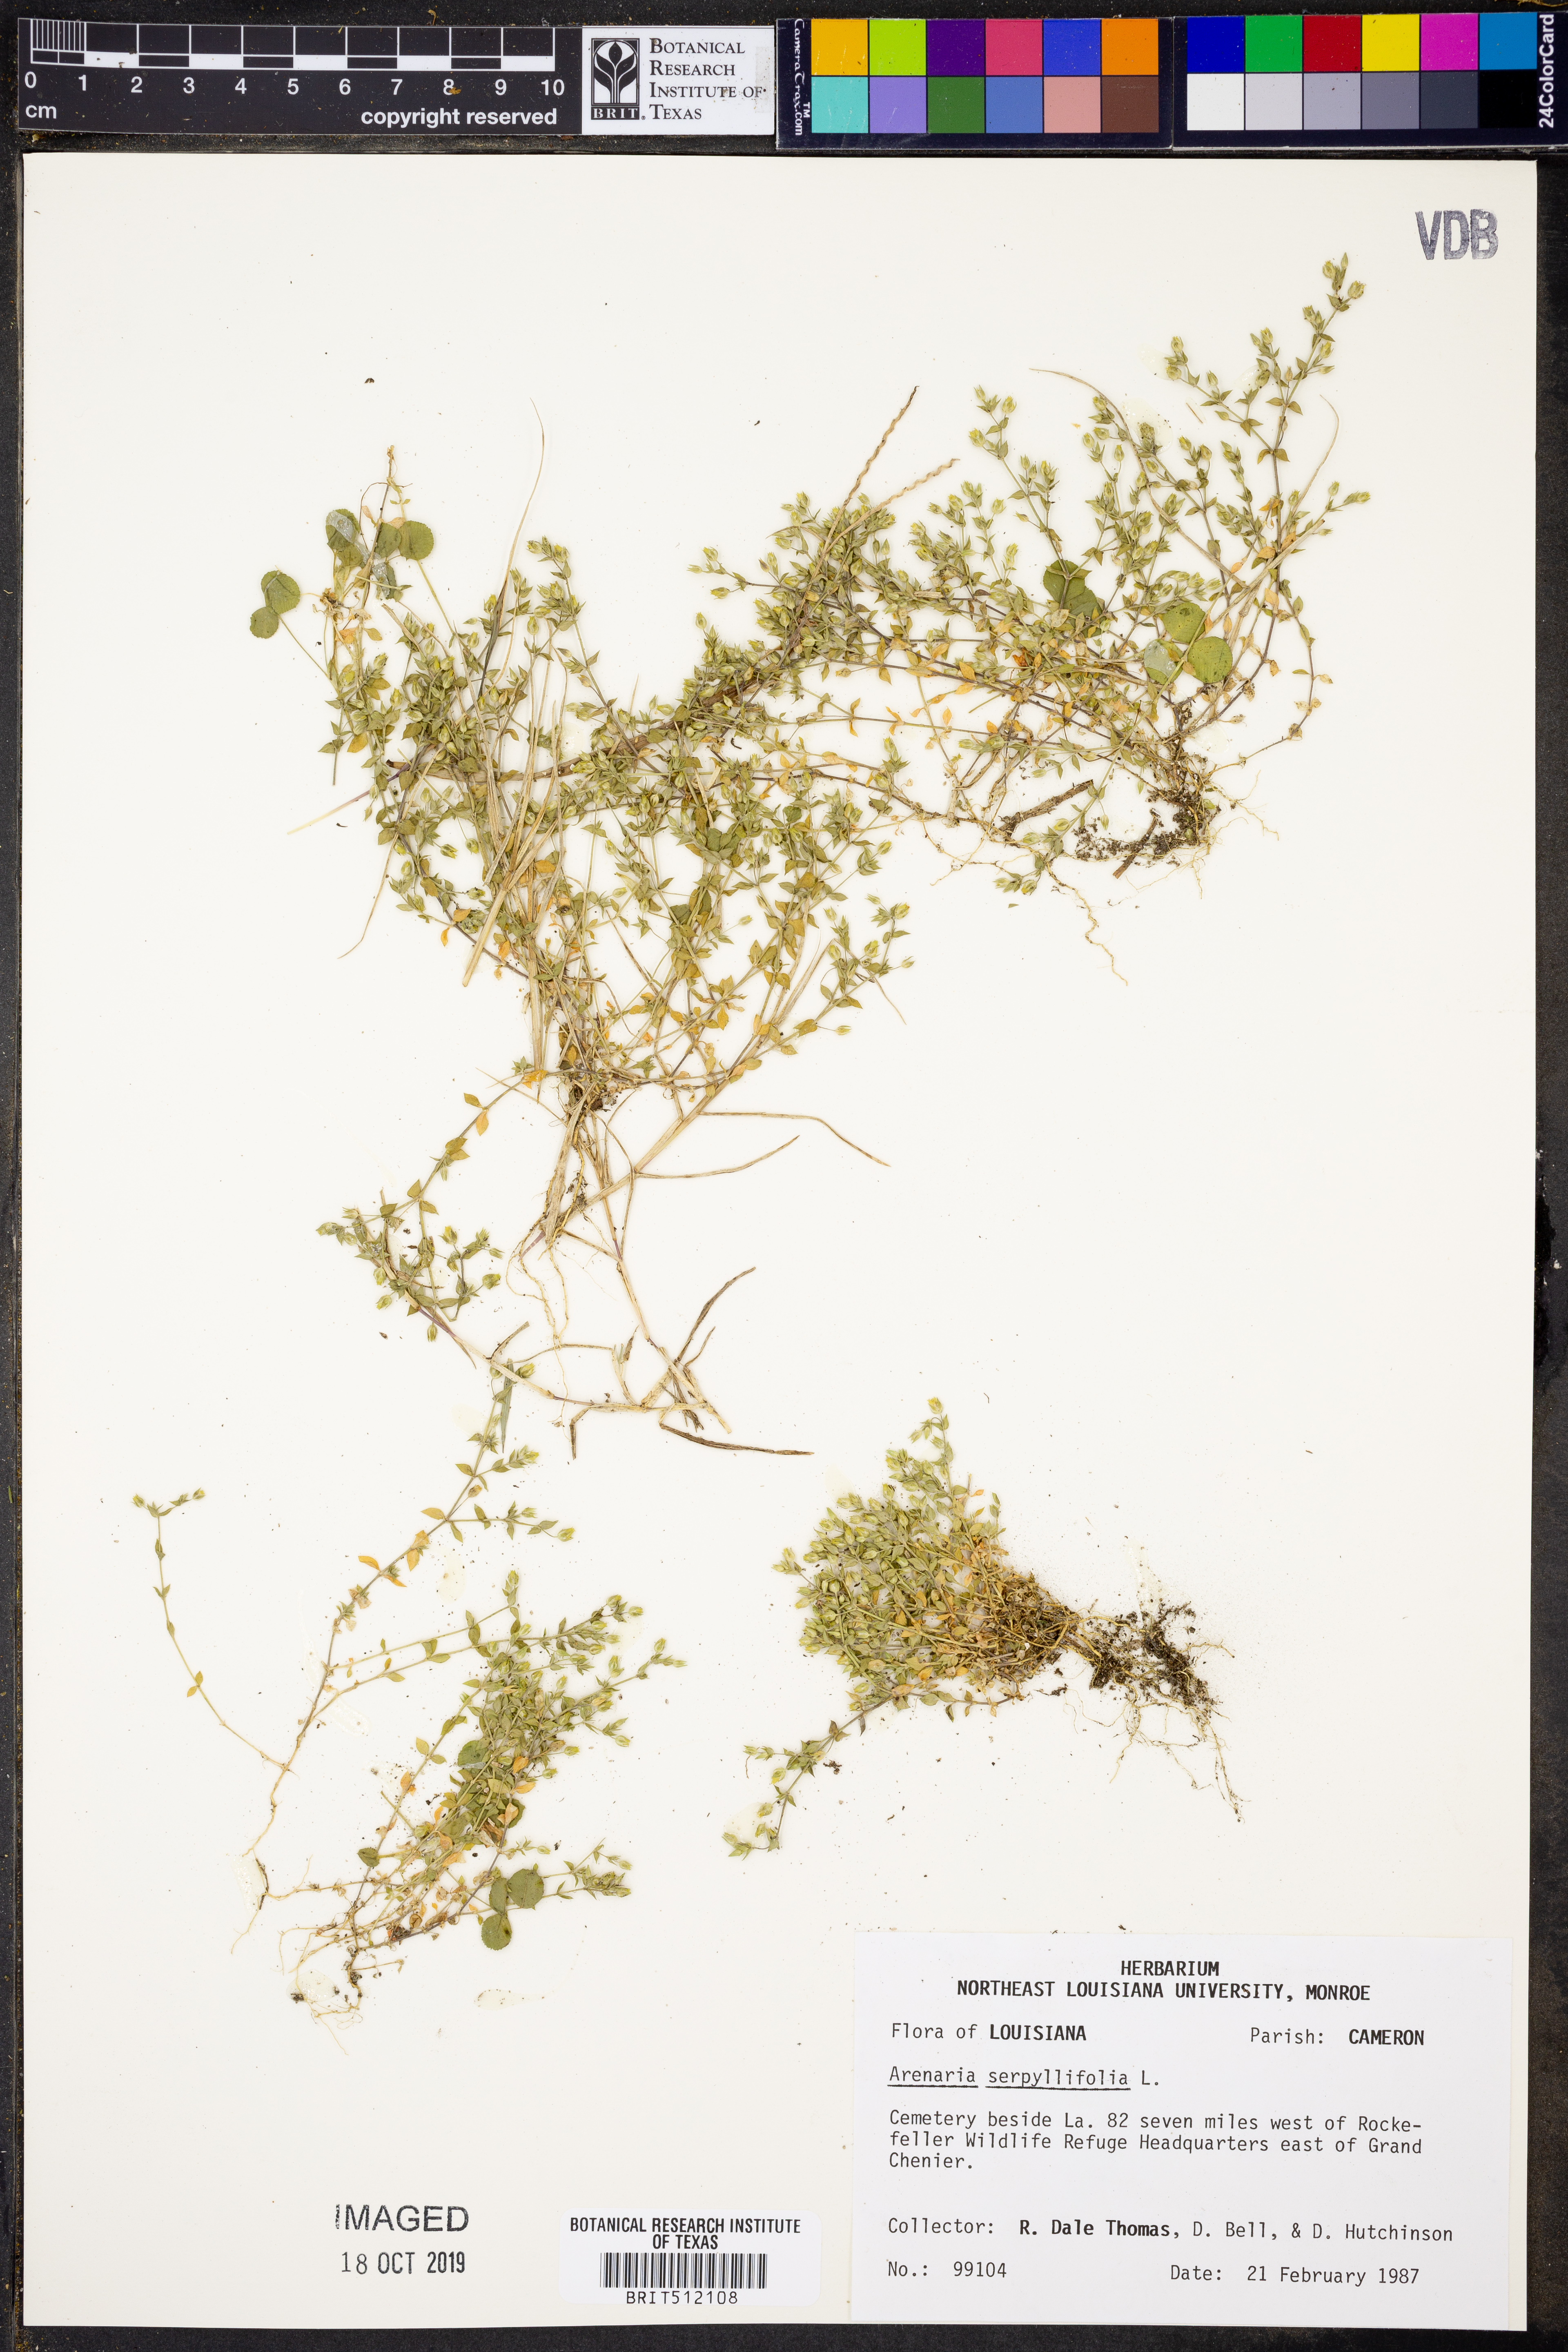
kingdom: Plantae
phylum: Tracheophyta
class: Magnoliopsida
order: Caryophyllales
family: Caryophyllaceae
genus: Arenaria
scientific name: Arenaria serpyllifolia
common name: Thyme-leaved sandwort
